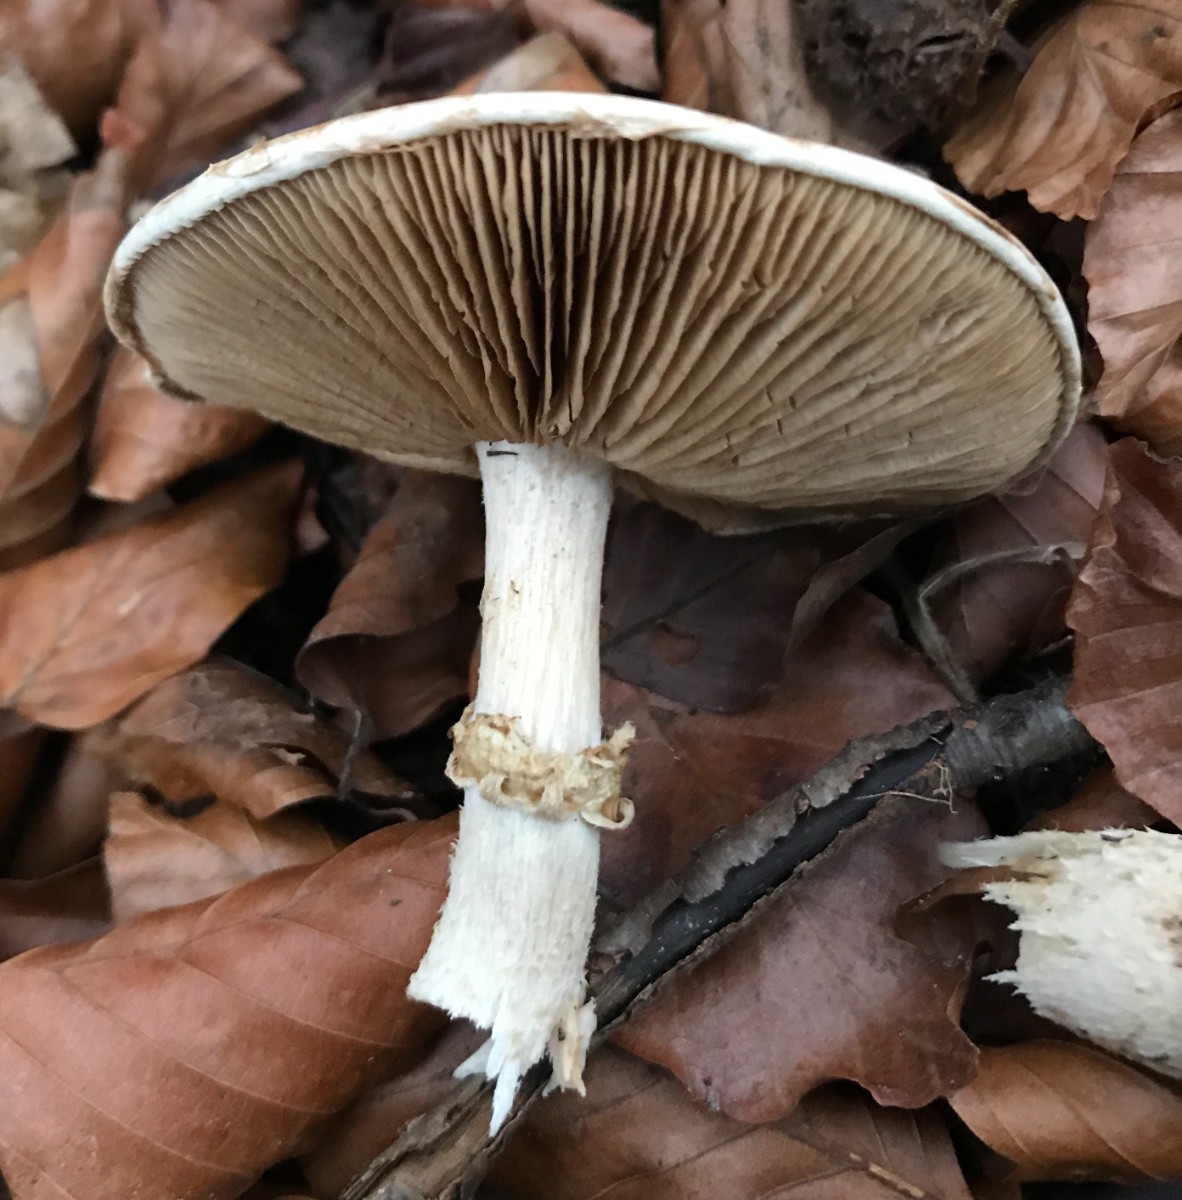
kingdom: Fungi
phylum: Basidiomycota
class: Agaricomycetes
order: Agaricales
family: Hymenogastraceae
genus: Hebeloma
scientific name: Hebeloma radicosum
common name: pælerods-tåreblad
